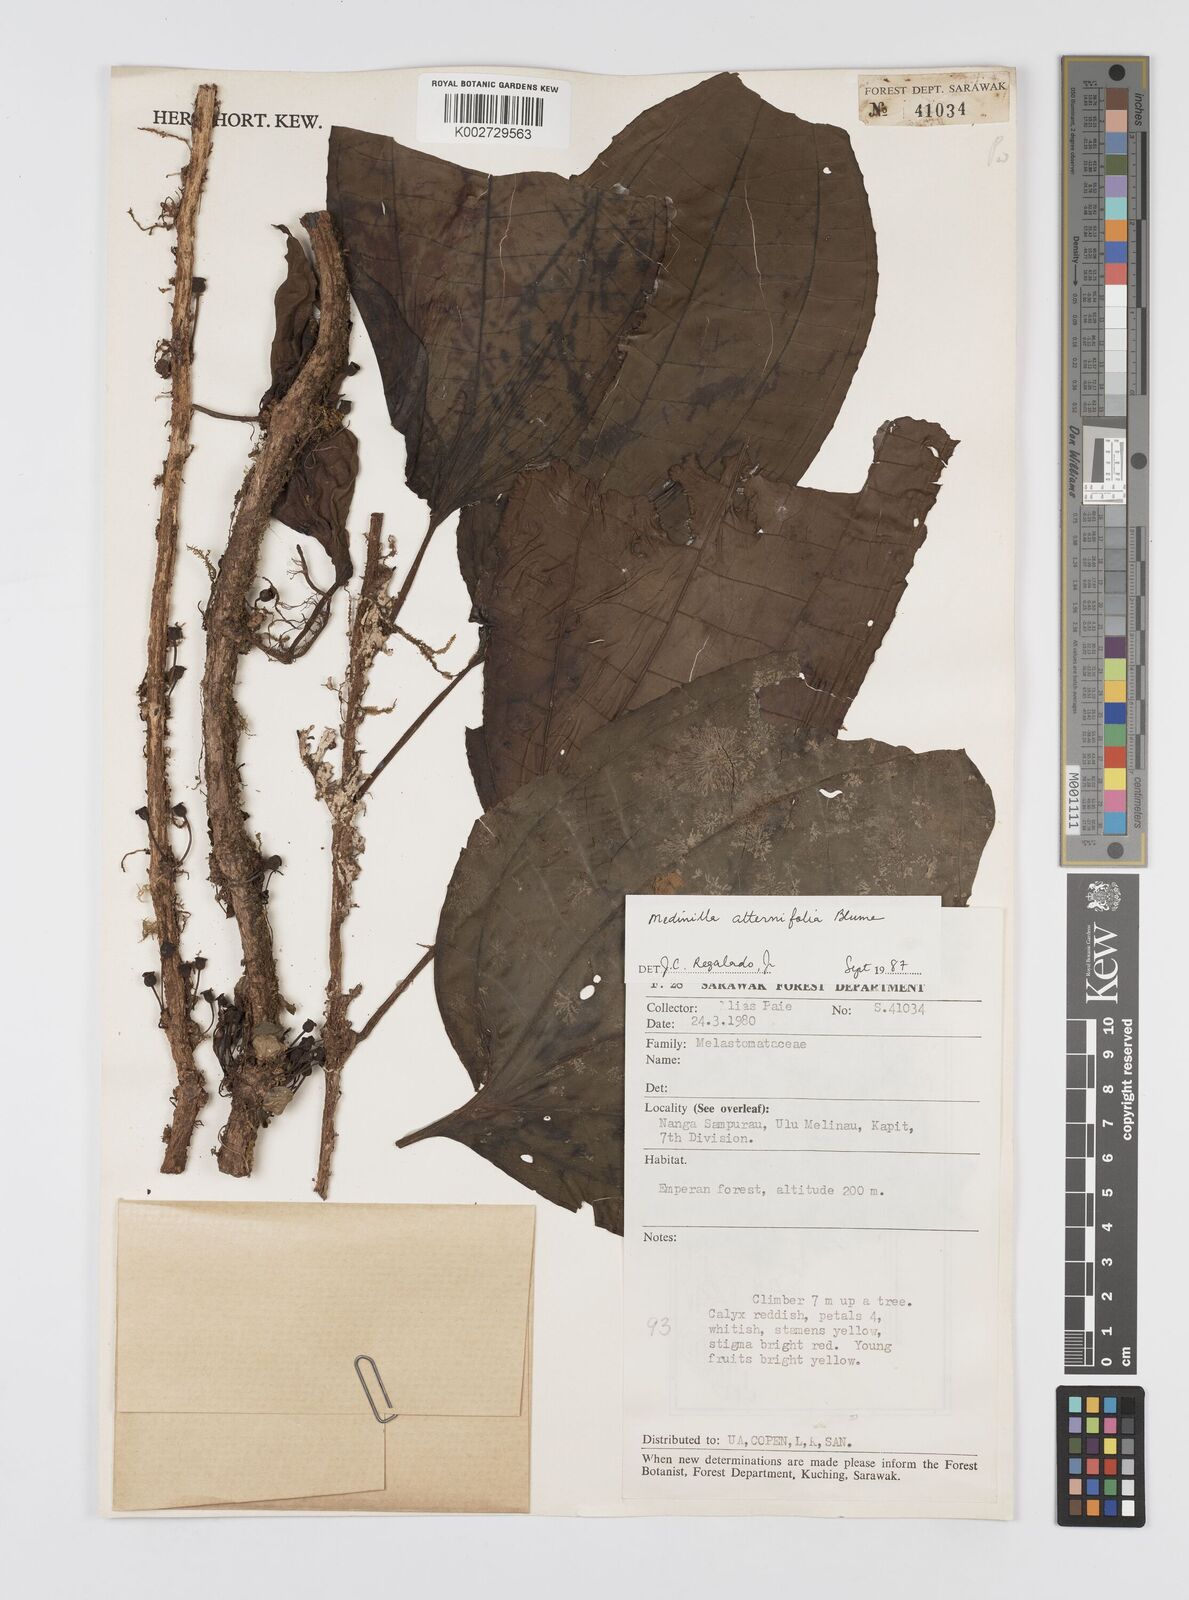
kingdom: Plantae
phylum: Tracheophyta
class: Magnoliopsida
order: Myrtales
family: Melastomataceae
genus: Heteroblemma
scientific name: Heteroblemma alternifolium
